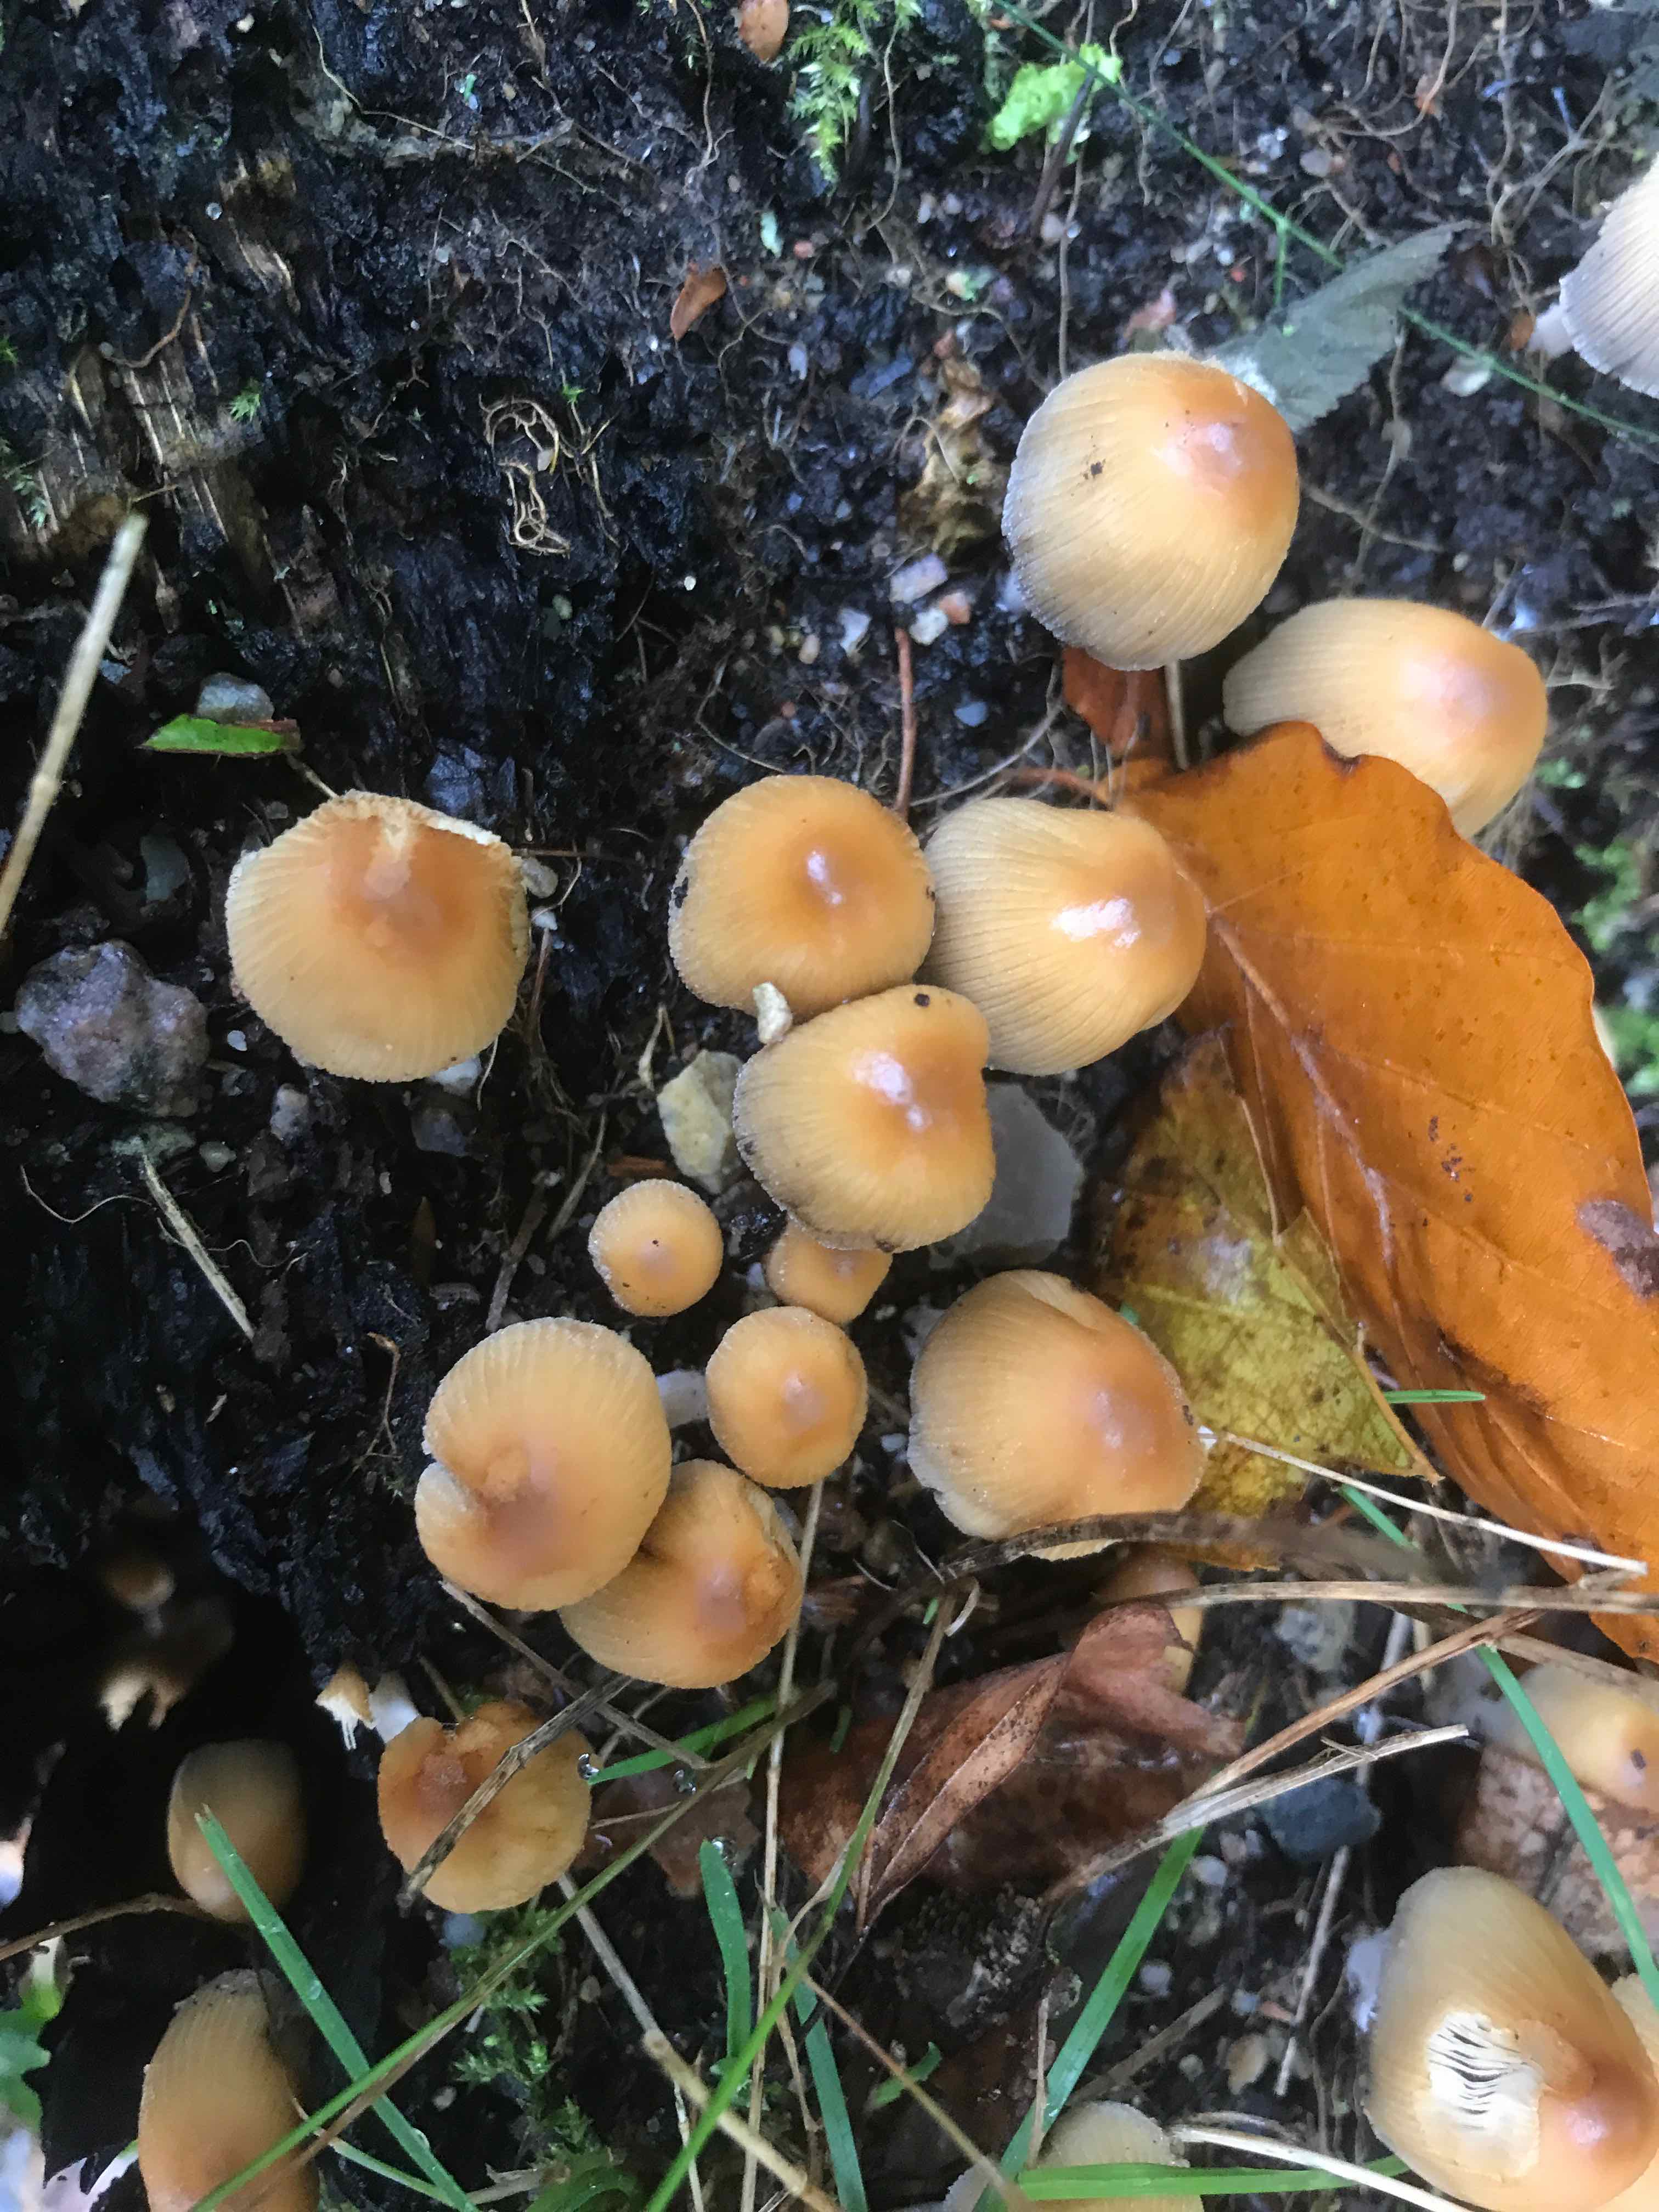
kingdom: Fungi
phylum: Basidiomycota
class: Agaricomycetes
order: Agaricales
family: Psathyrellaceae
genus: Coprinellus
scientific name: Coprinellus micaceus
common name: glimmer-blækhat
